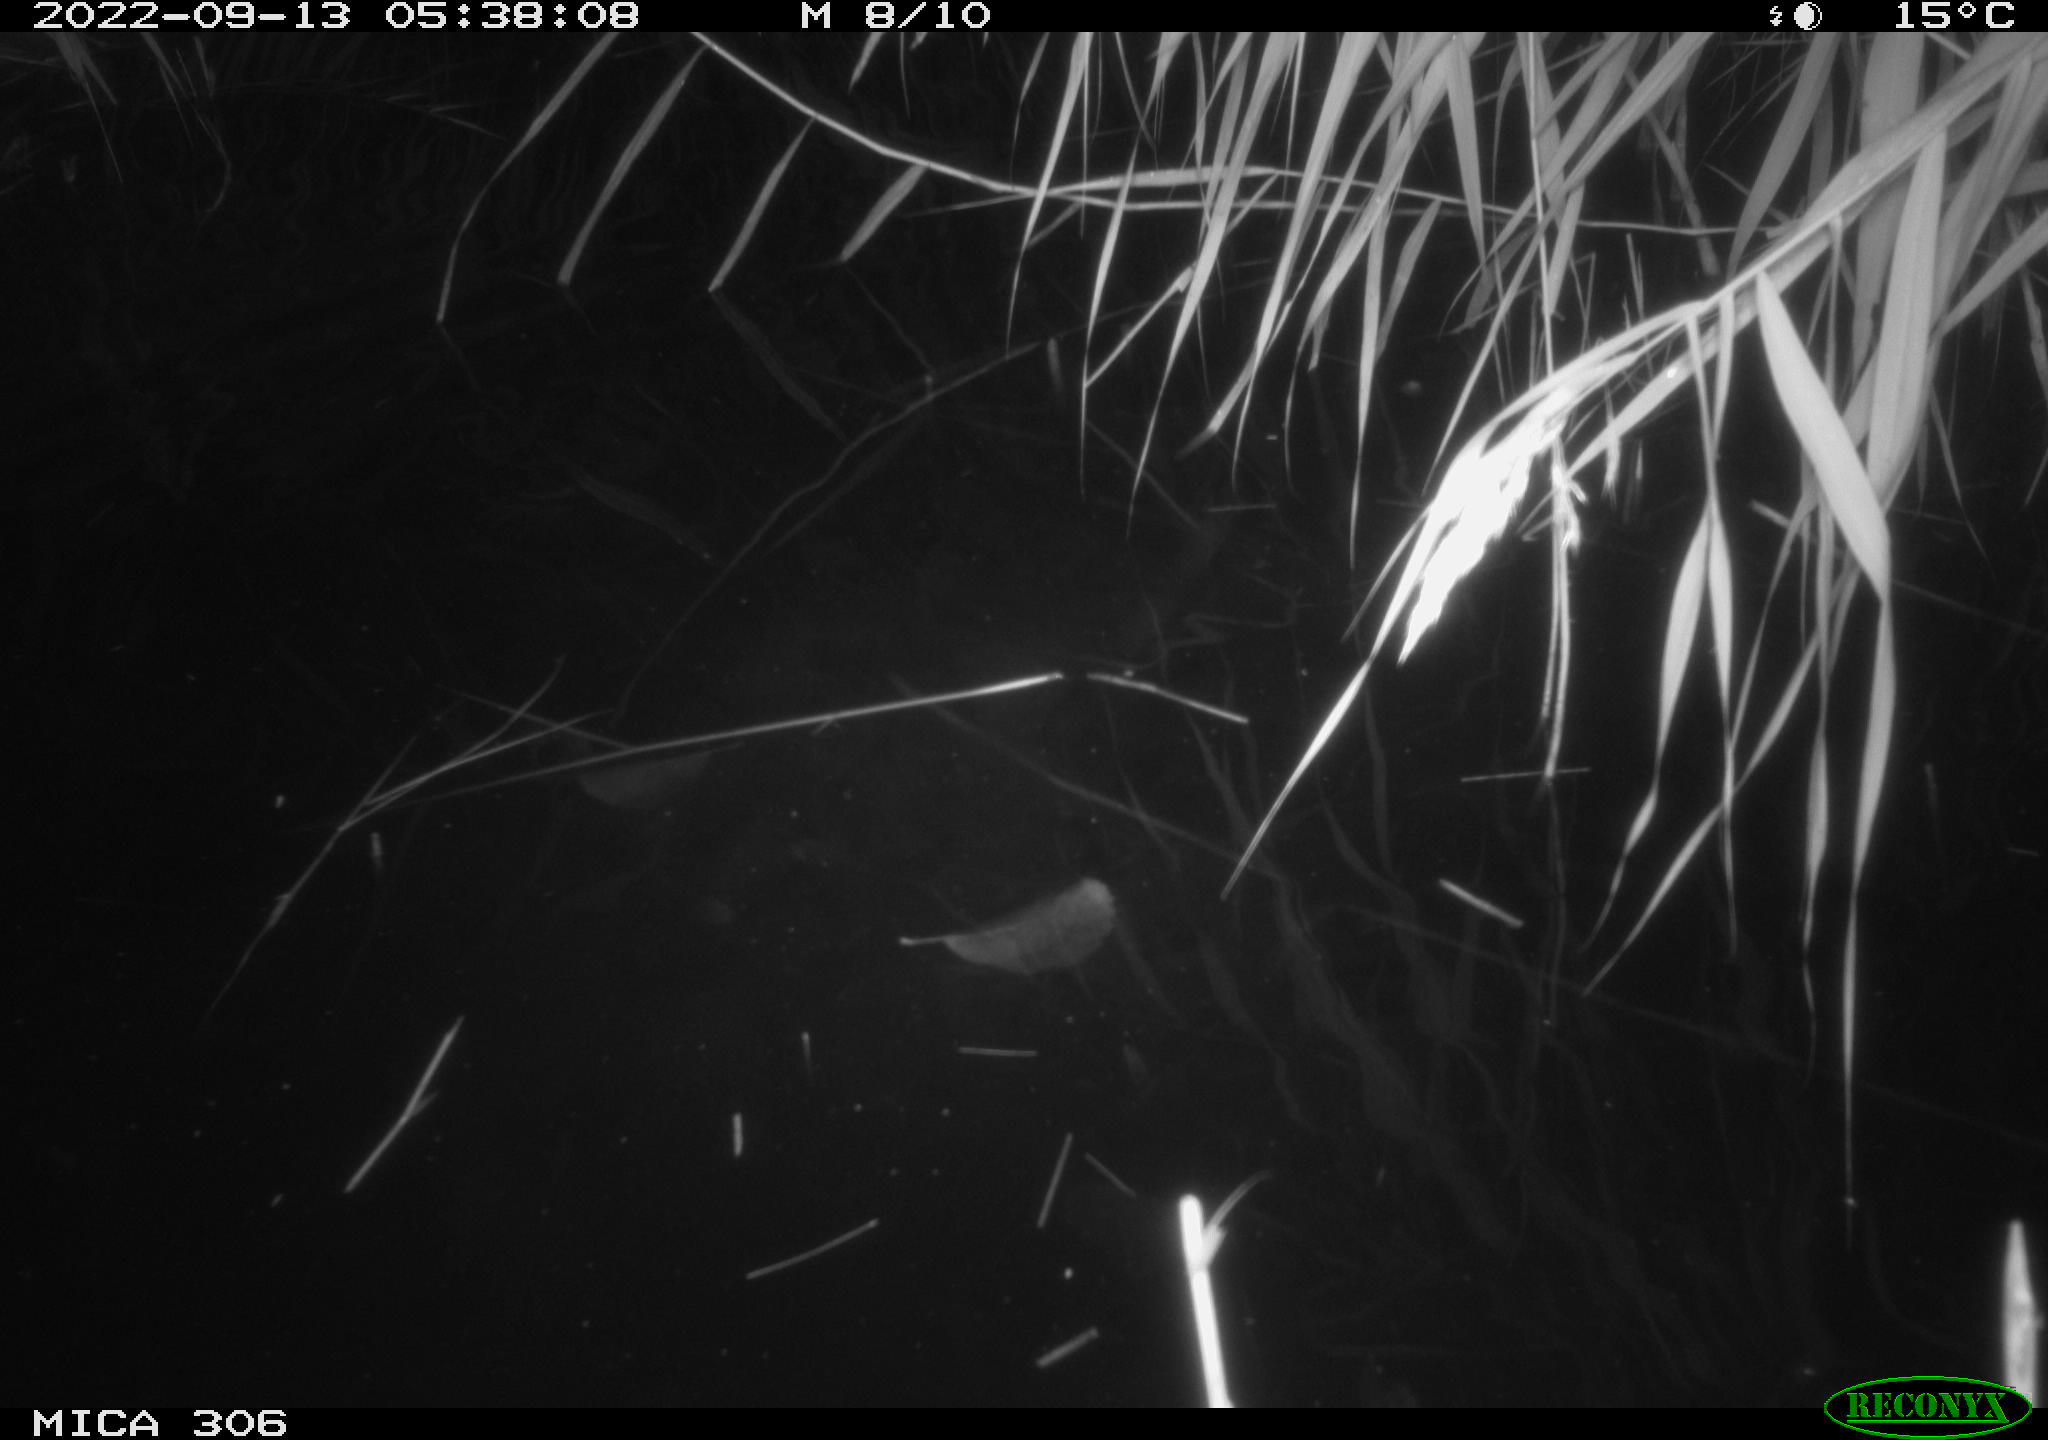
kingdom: Animalia
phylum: Chordata
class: Mammalia
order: Rodentia
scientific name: Rodentia
